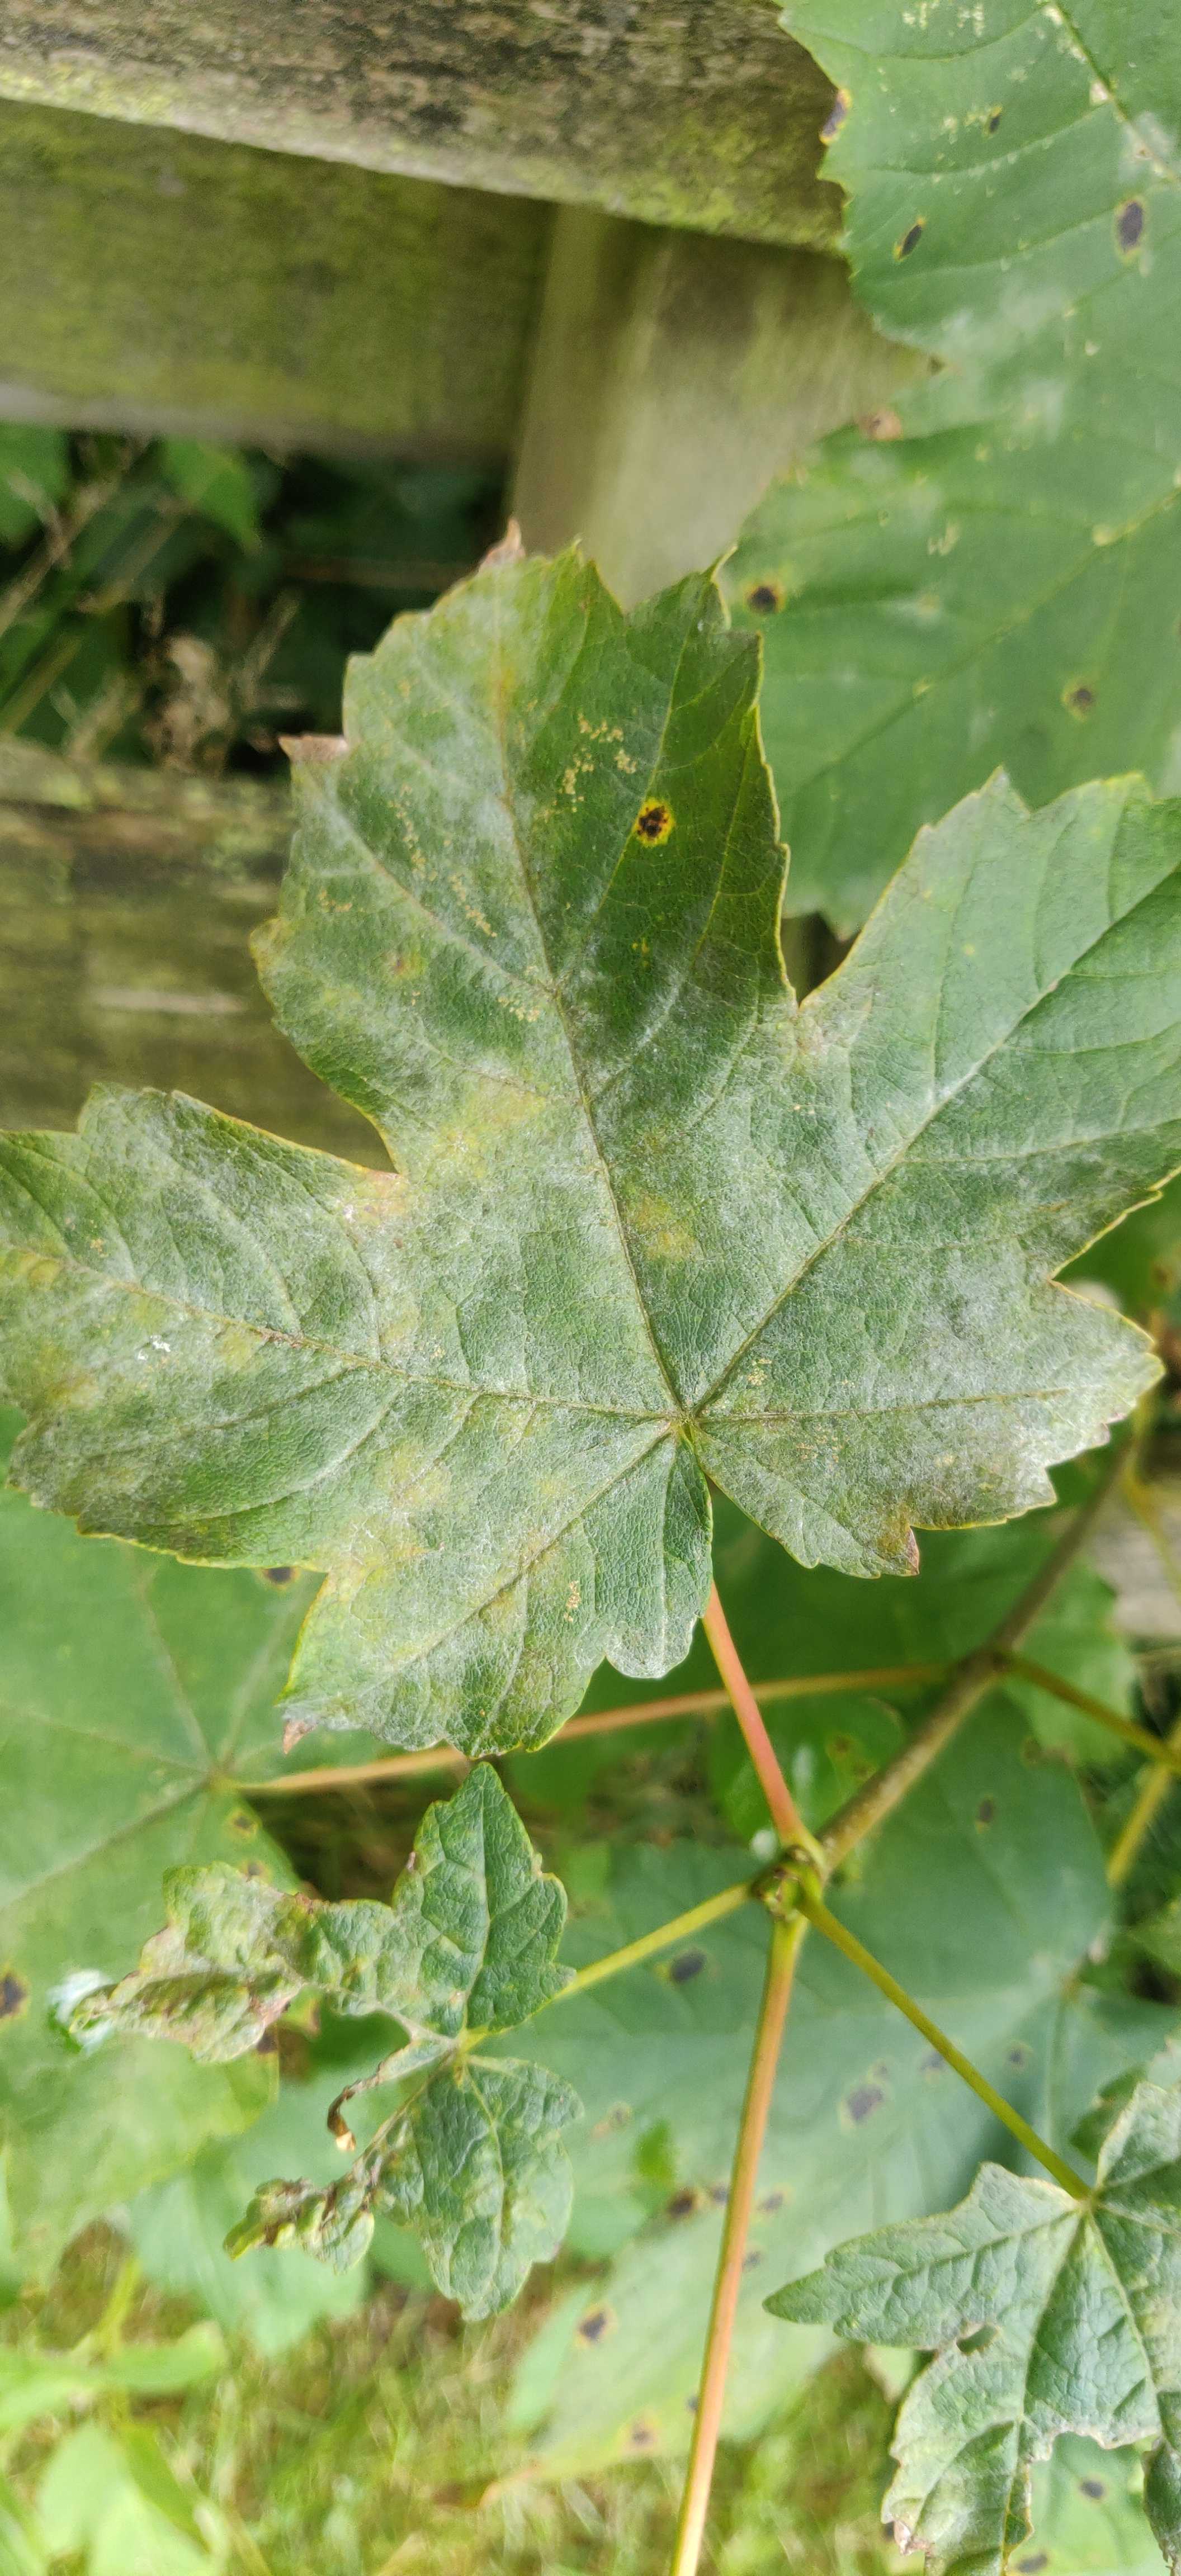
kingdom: Fungi
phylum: Ascomycota
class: Leotiomycetes
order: Helotiales
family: Erysiphaceae
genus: Sawadaea
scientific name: Sawadaea bicornis
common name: Maple mildew
